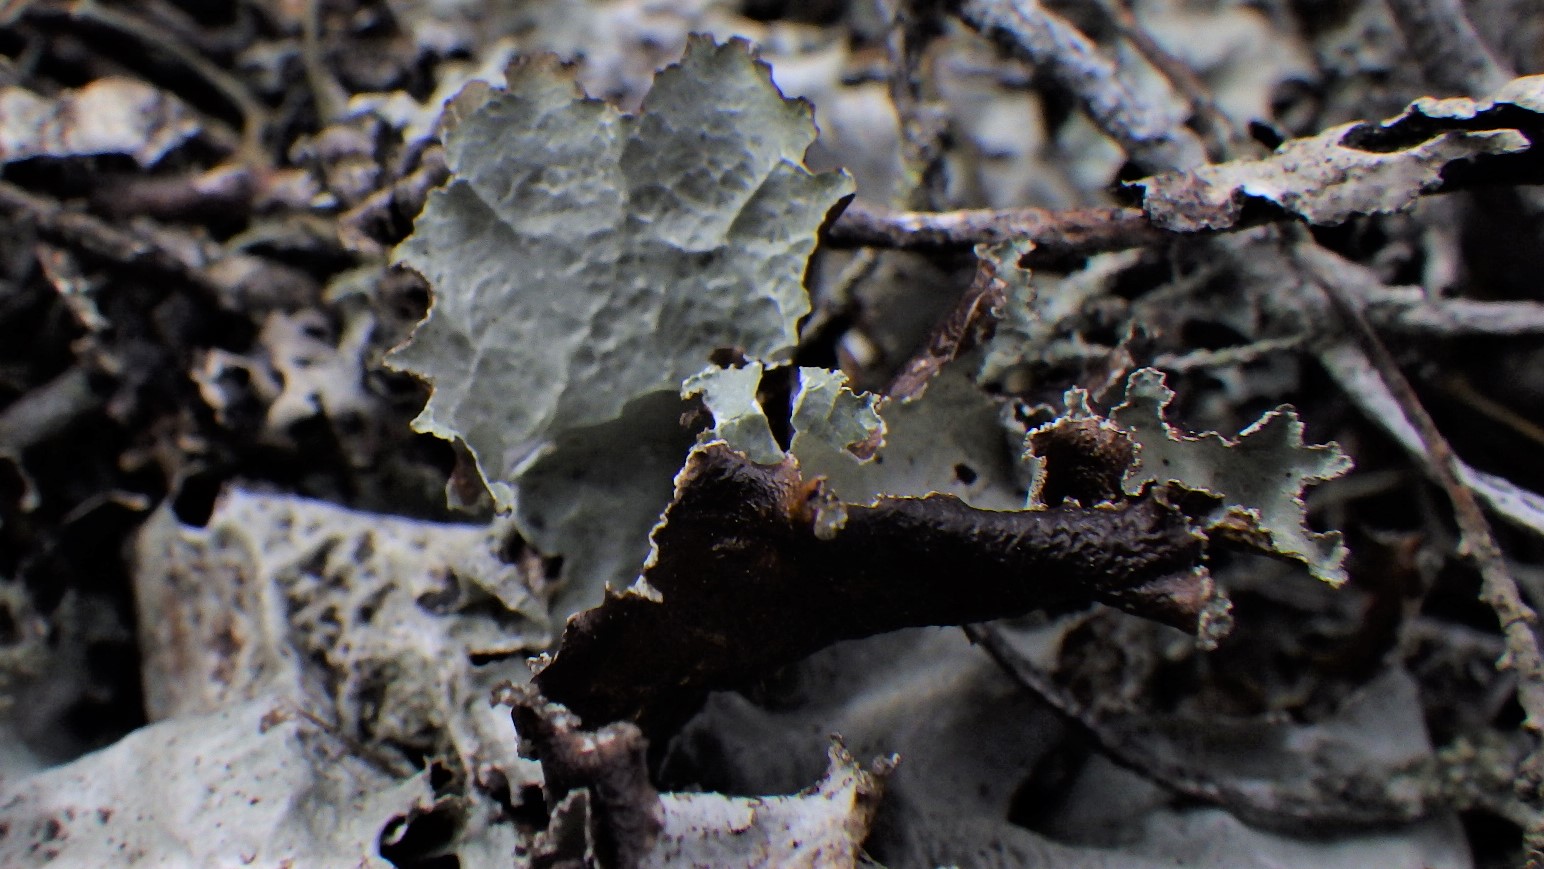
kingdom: Fungi
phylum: Ascomycota
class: Lecanoromycetes
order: Lecanorales
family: Parmeliaceae
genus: Platismatia
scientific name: Platismatia glauca
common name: blågrå papirlav
